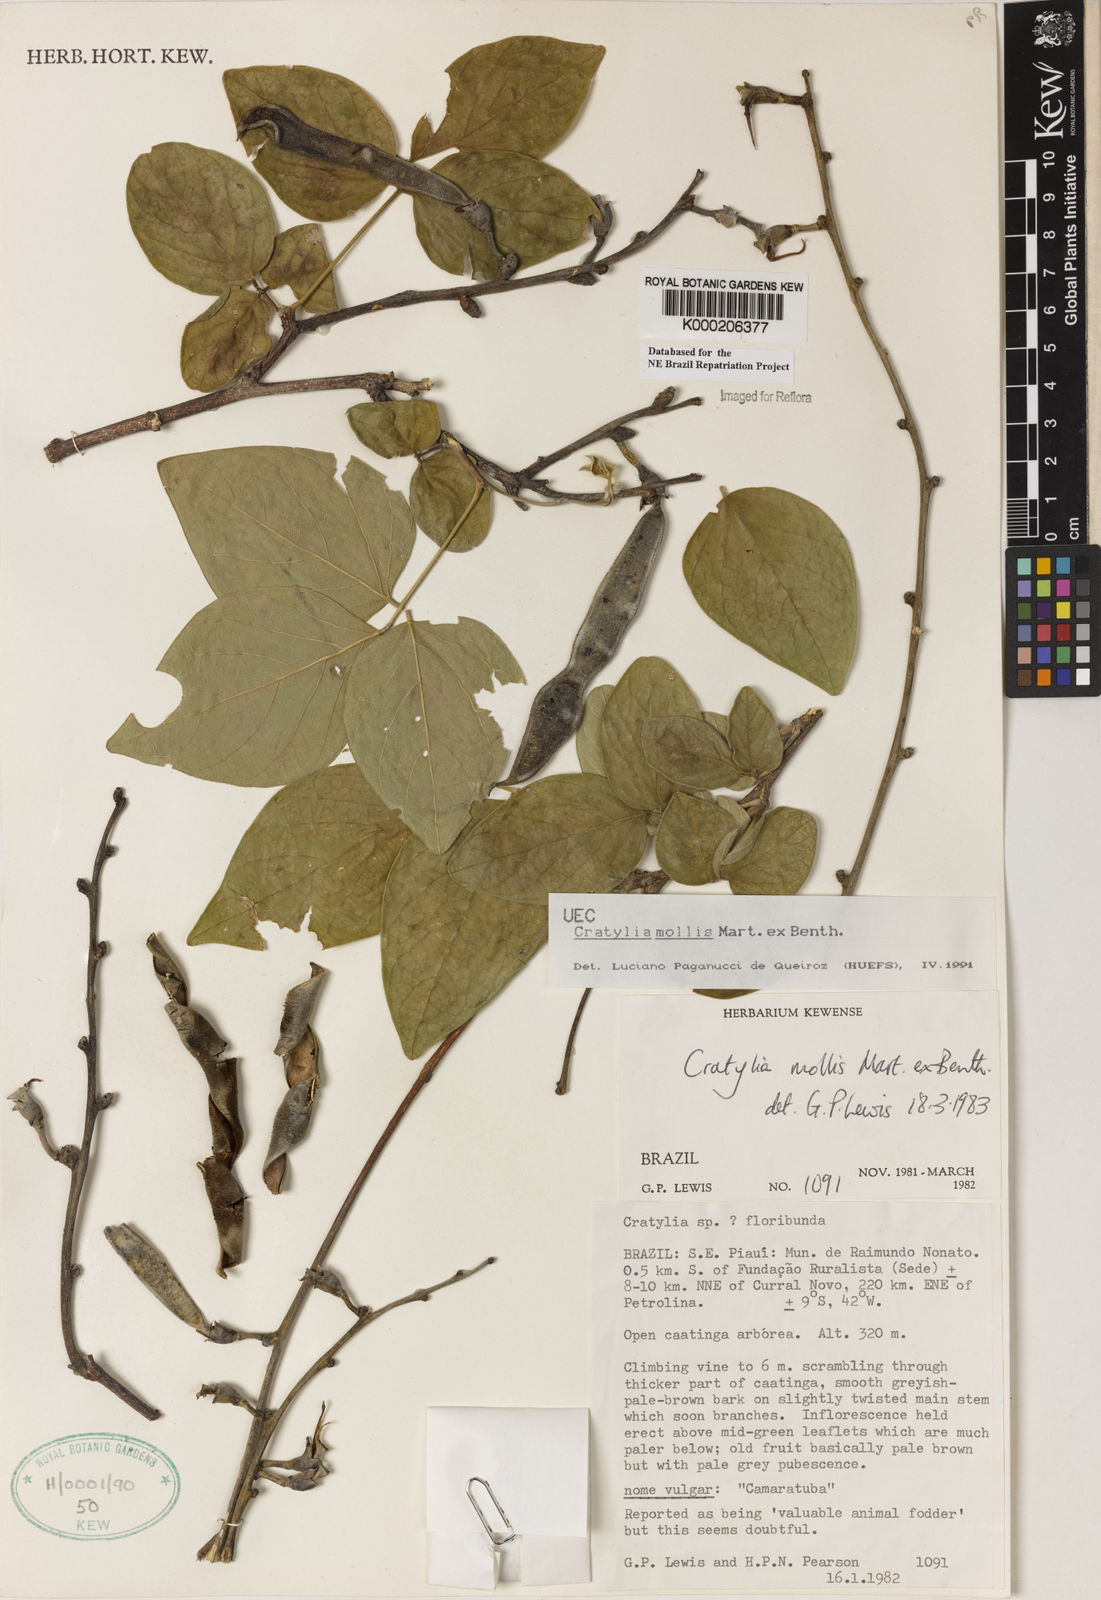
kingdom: Plantae
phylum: Tracheophyta
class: Magnoliopsida
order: Fabales
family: Fabaceae
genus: Cratylia
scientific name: Cratylia mollis
